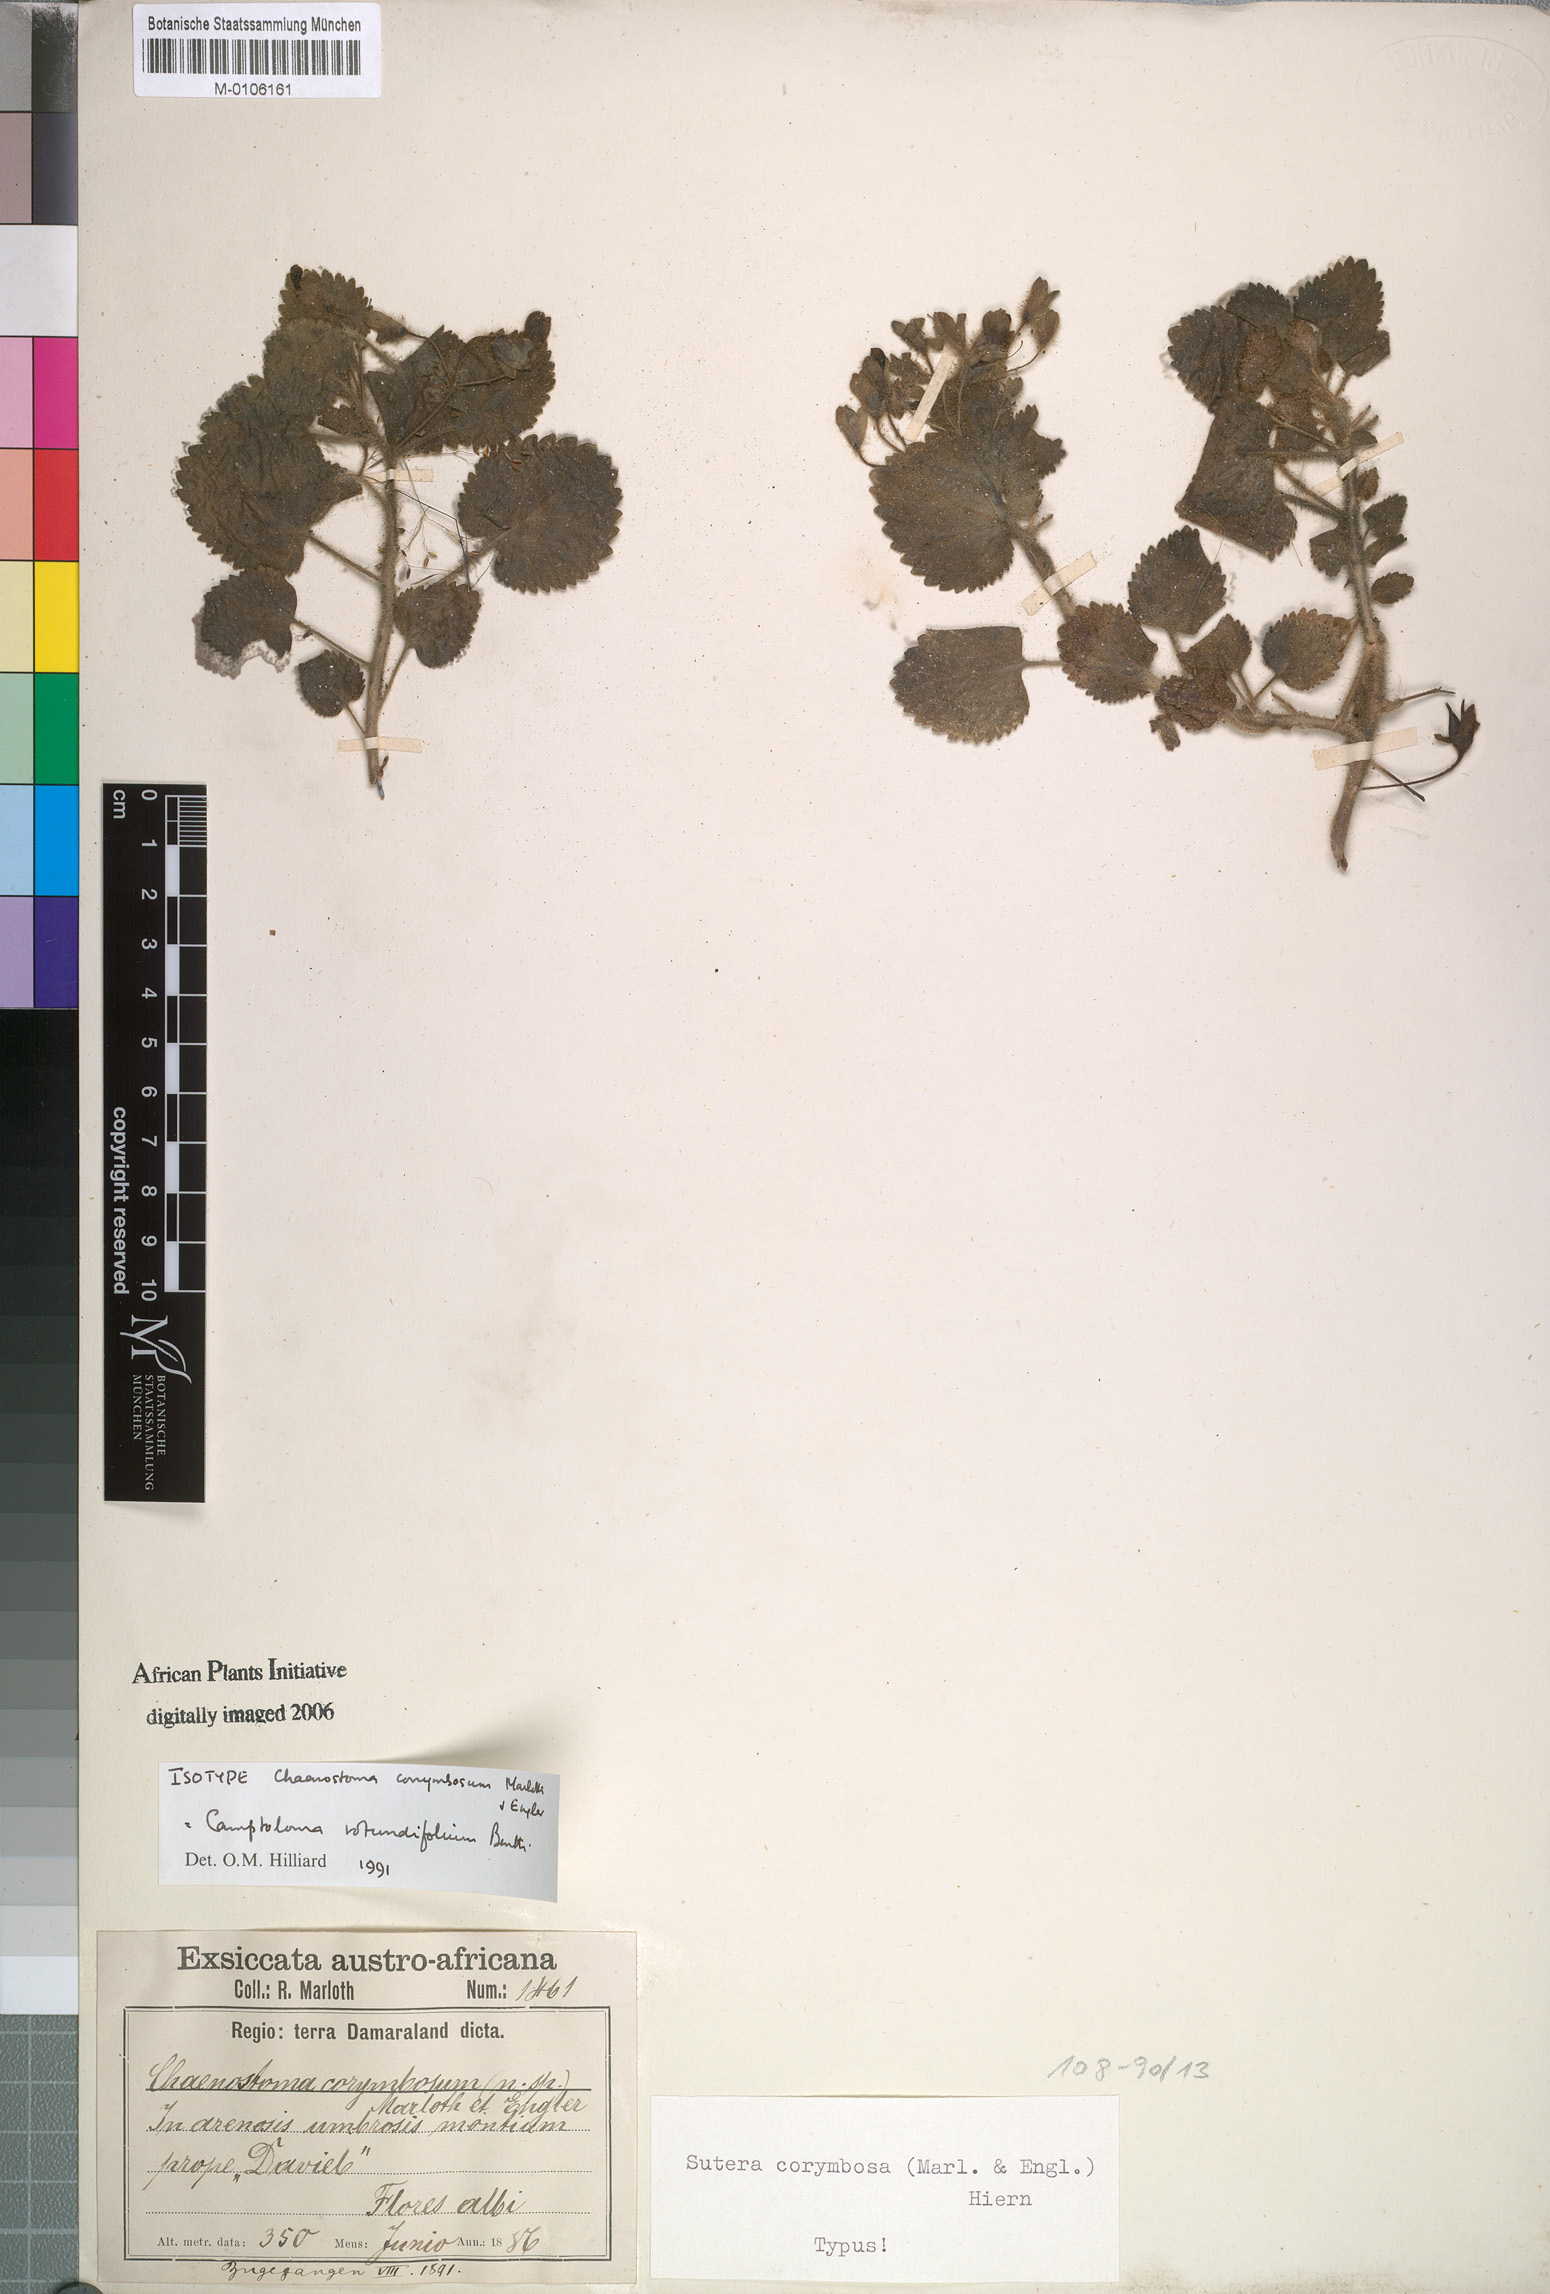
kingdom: Plantae
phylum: Tracheophyta
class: Magnoliopsida
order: Lamiales
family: Scrophulariaceae
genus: Camptoloma
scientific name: Camptoloma rotundifolium
